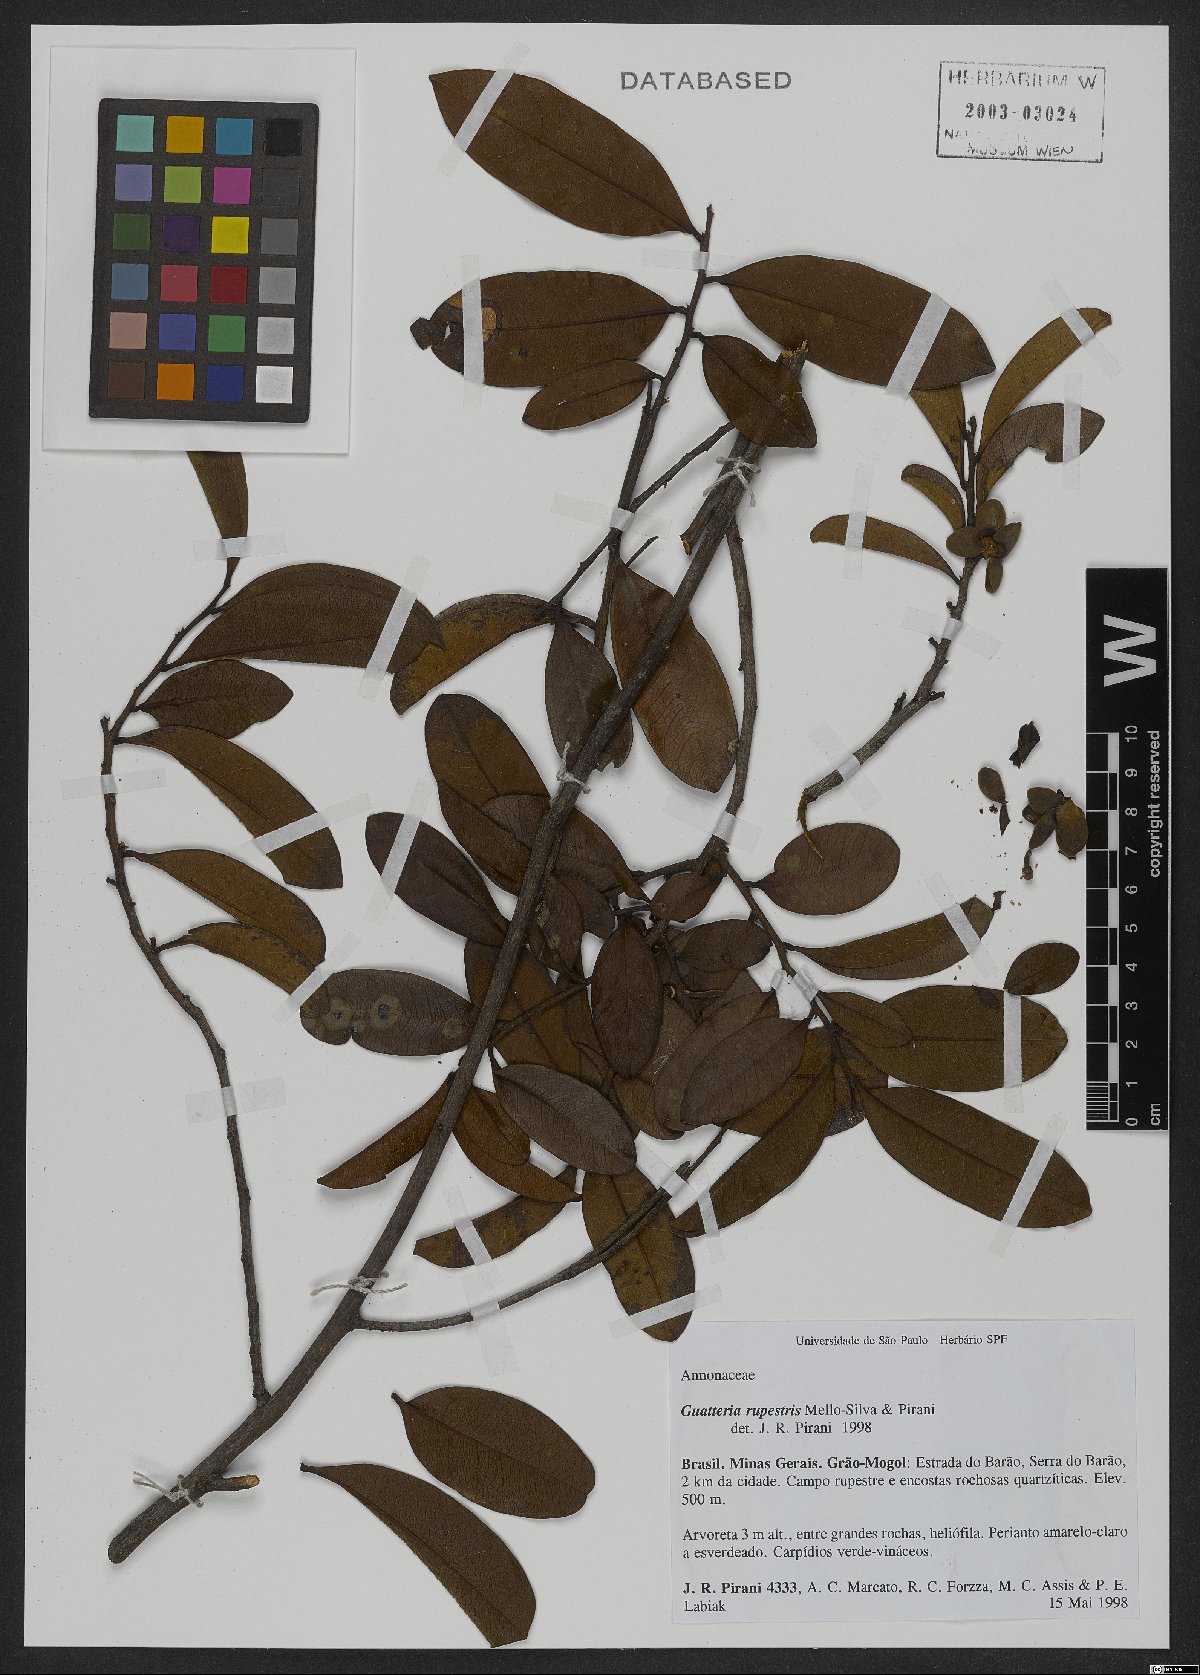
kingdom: Plantae
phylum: Tracheophyta
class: Magnoliopsida
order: Magnoliales
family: Annonaceae
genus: Guatteria
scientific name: Guatteria rupestris
